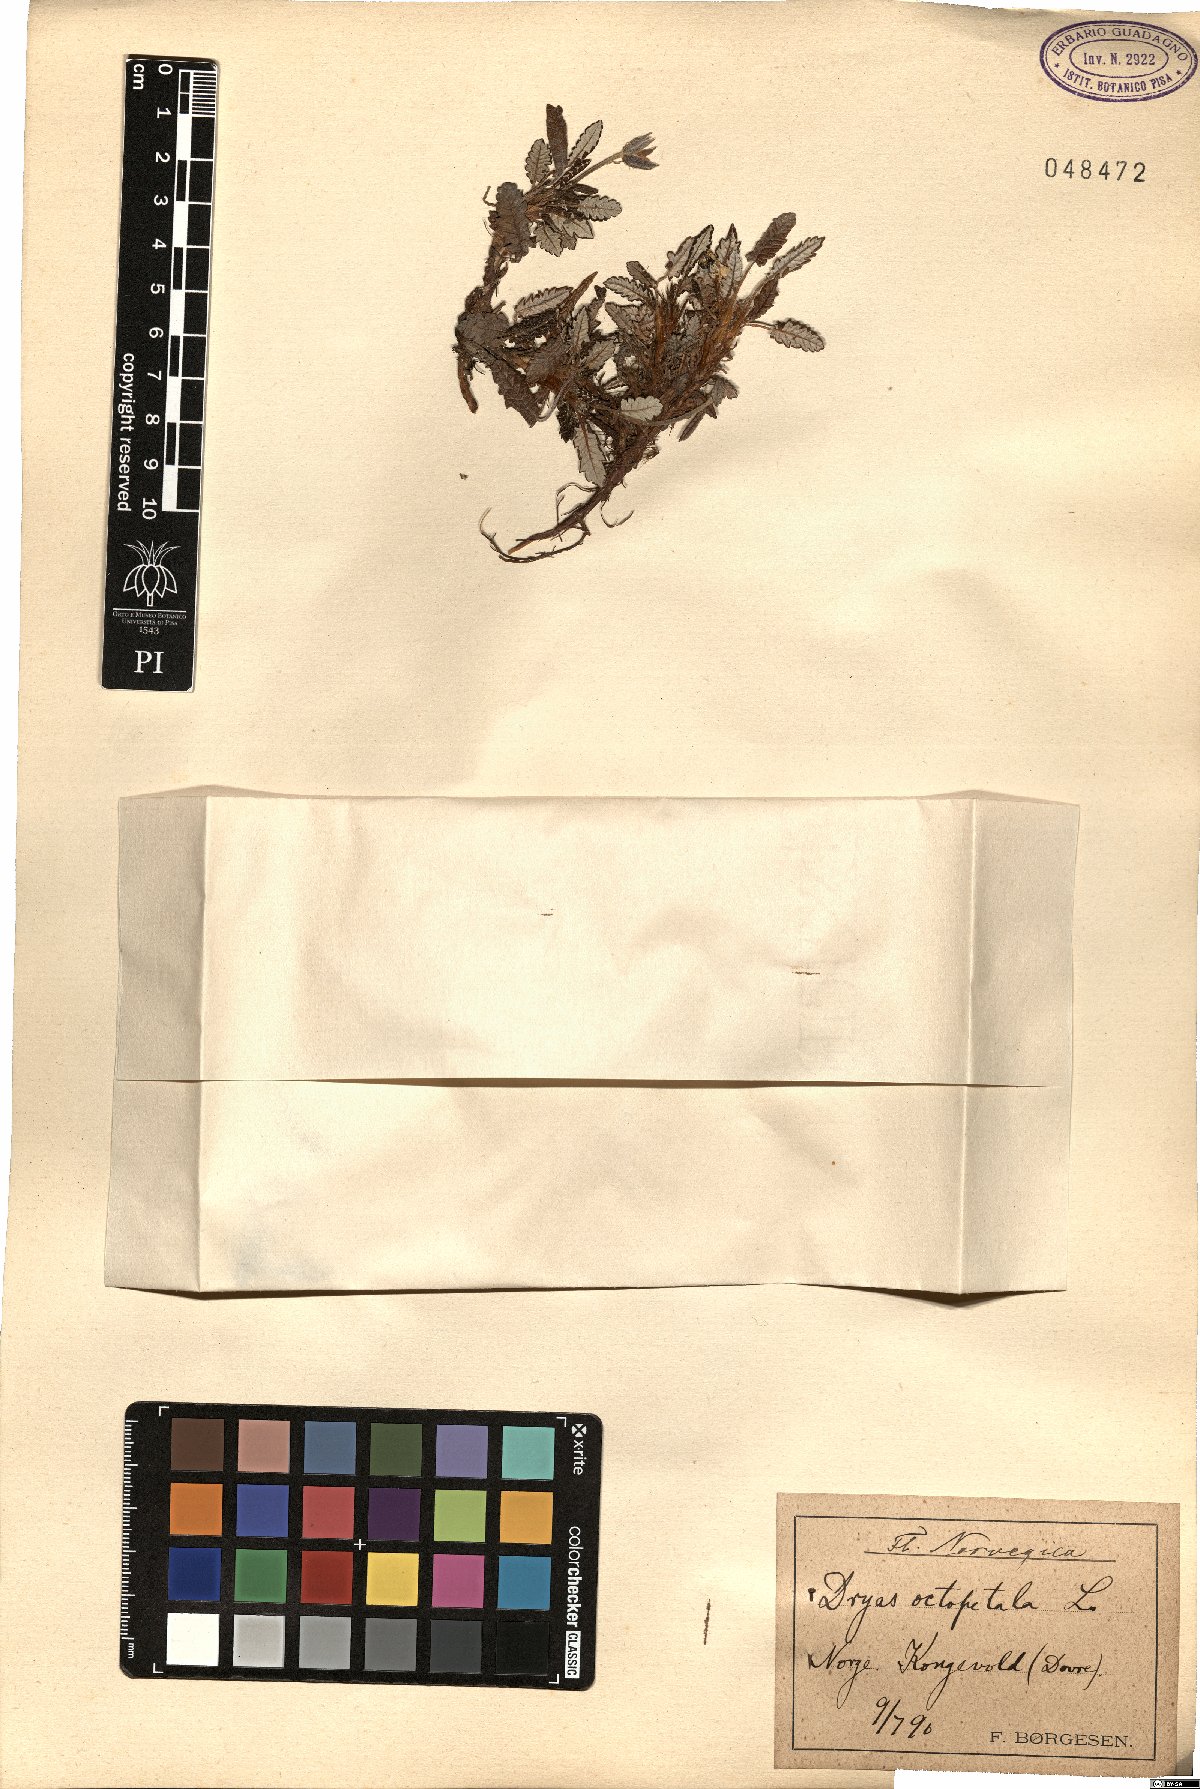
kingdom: Plantae
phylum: Tracheophyta
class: Magnoliopsida
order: Rosales
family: Rosaceae
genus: Dryas
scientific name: Dryas octopetala
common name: Eight-petal mountain-avens
